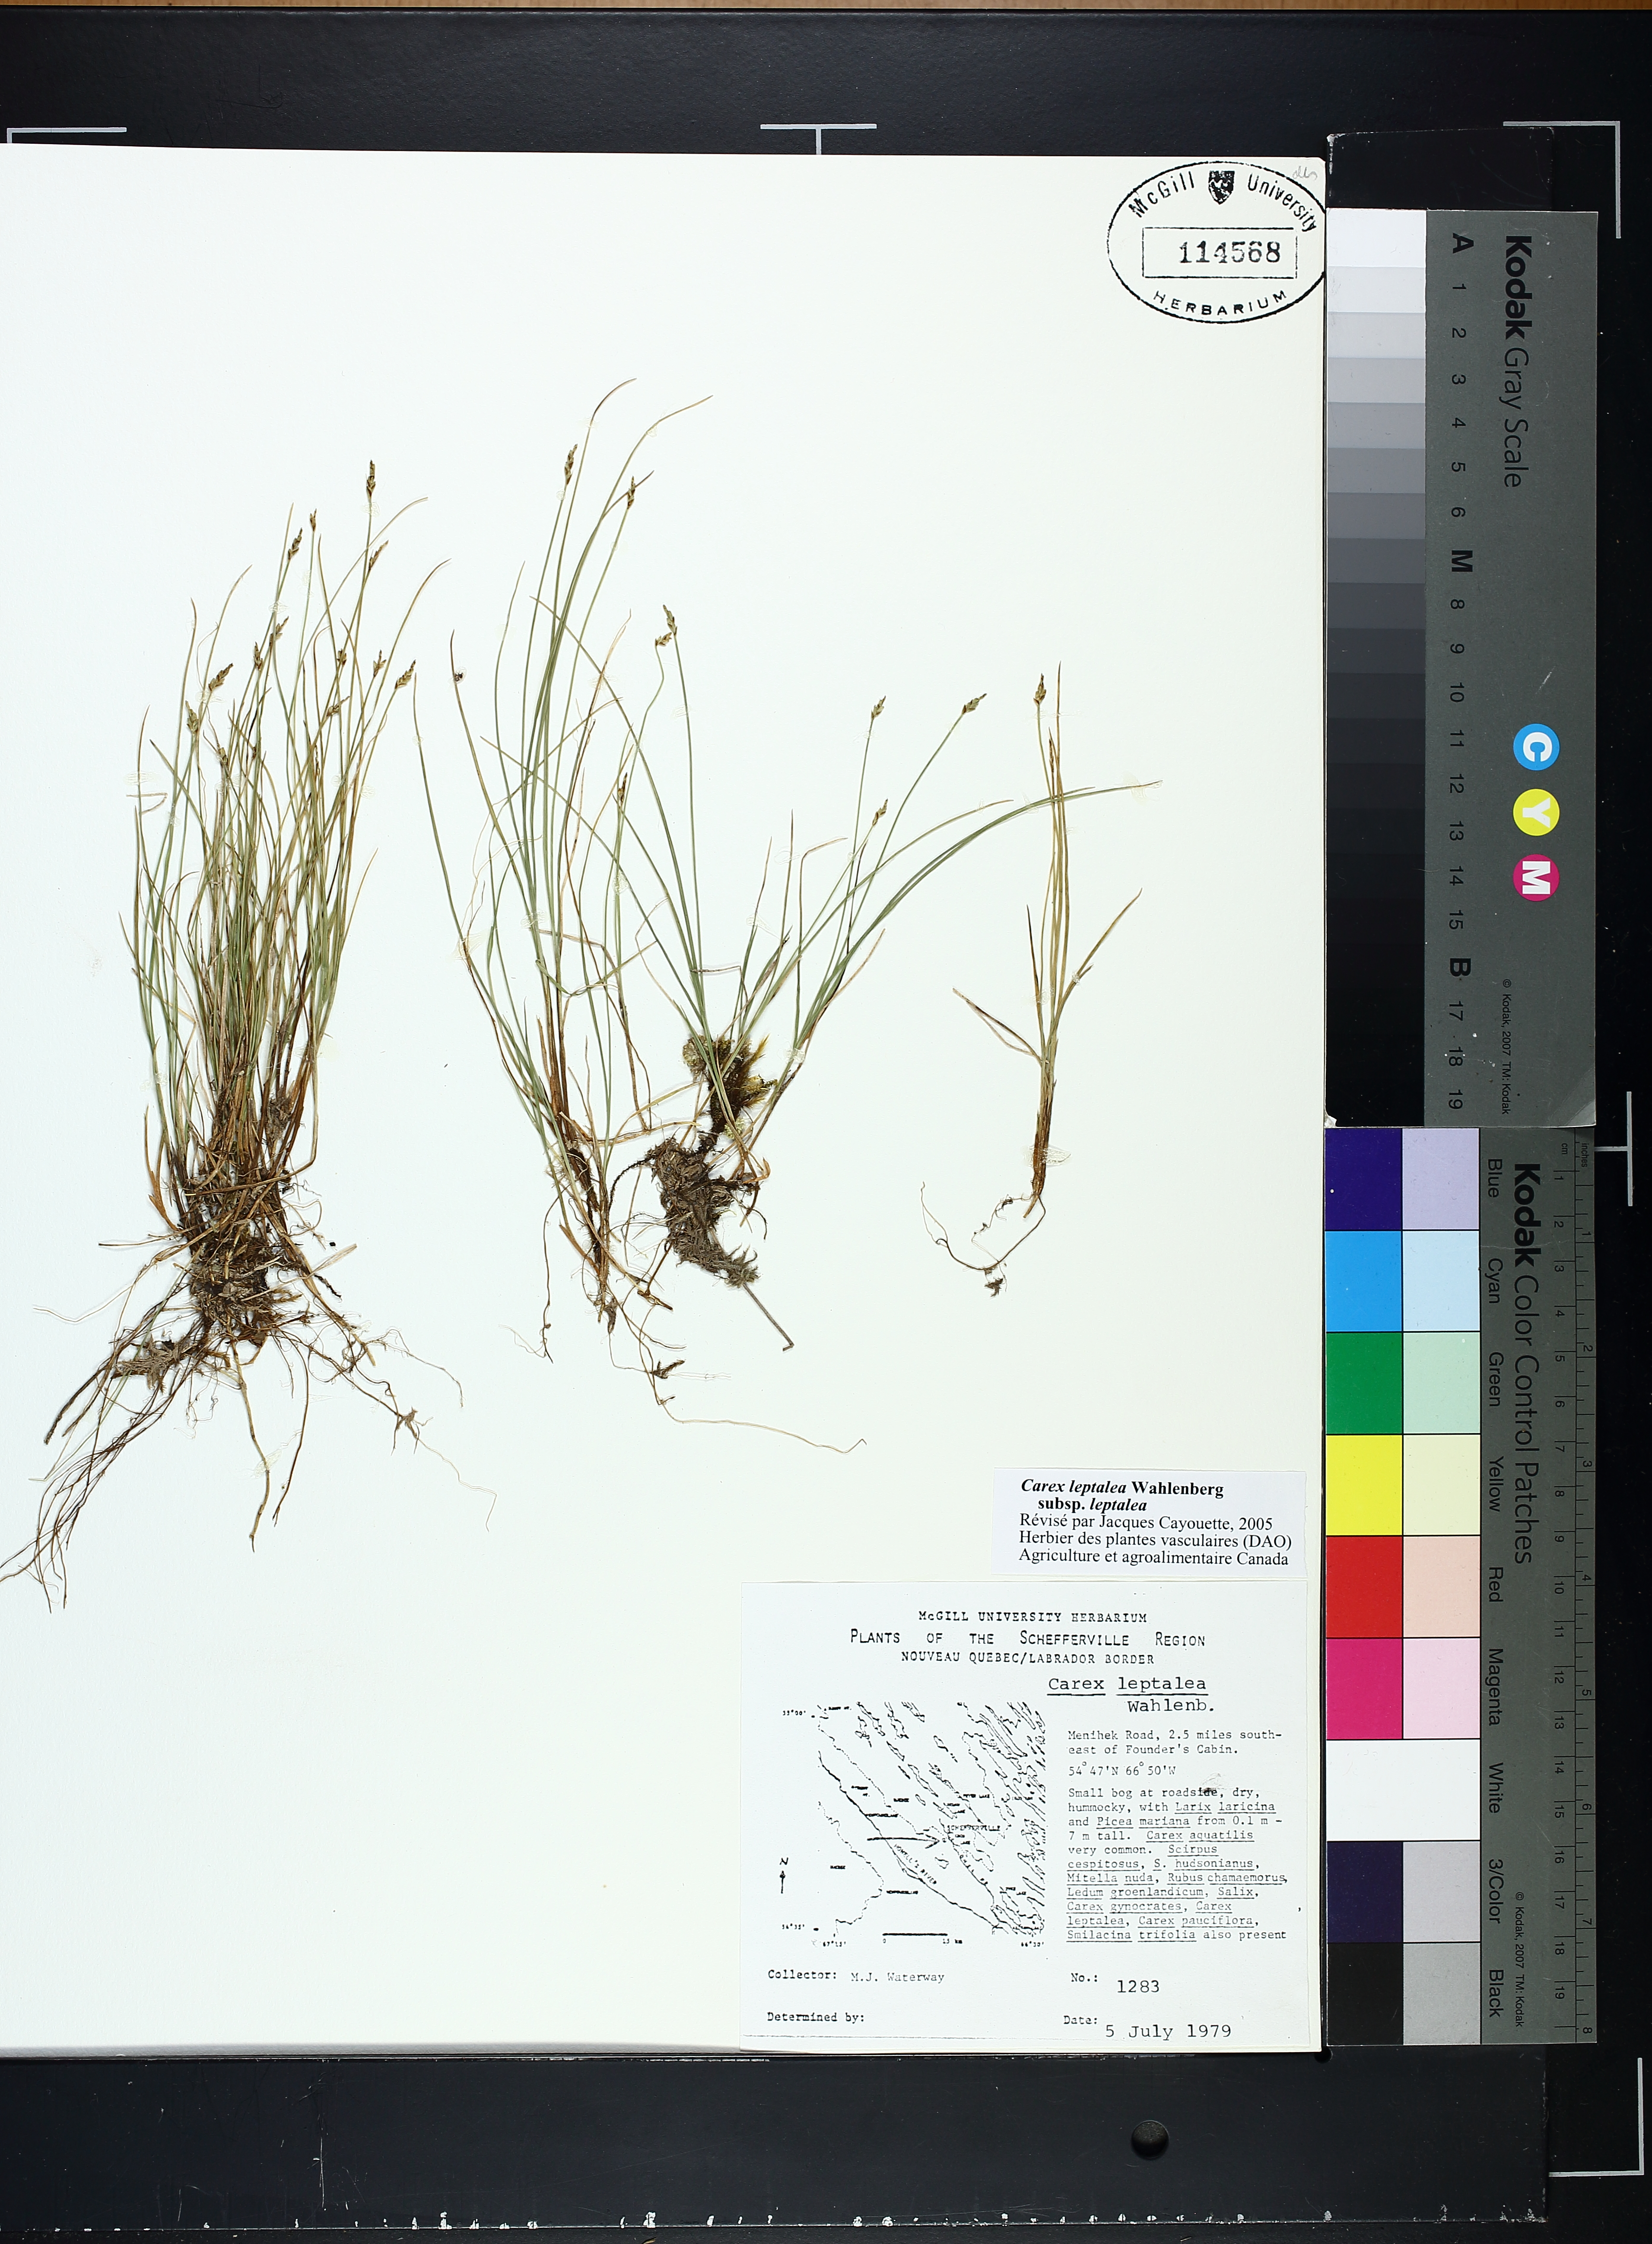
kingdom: Plantae
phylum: Tracheophyta
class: Liliopsida
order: Poales
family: Cyperaceae
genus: Carex
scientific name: Carex leptalea
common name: Bristly-stalked sedge
